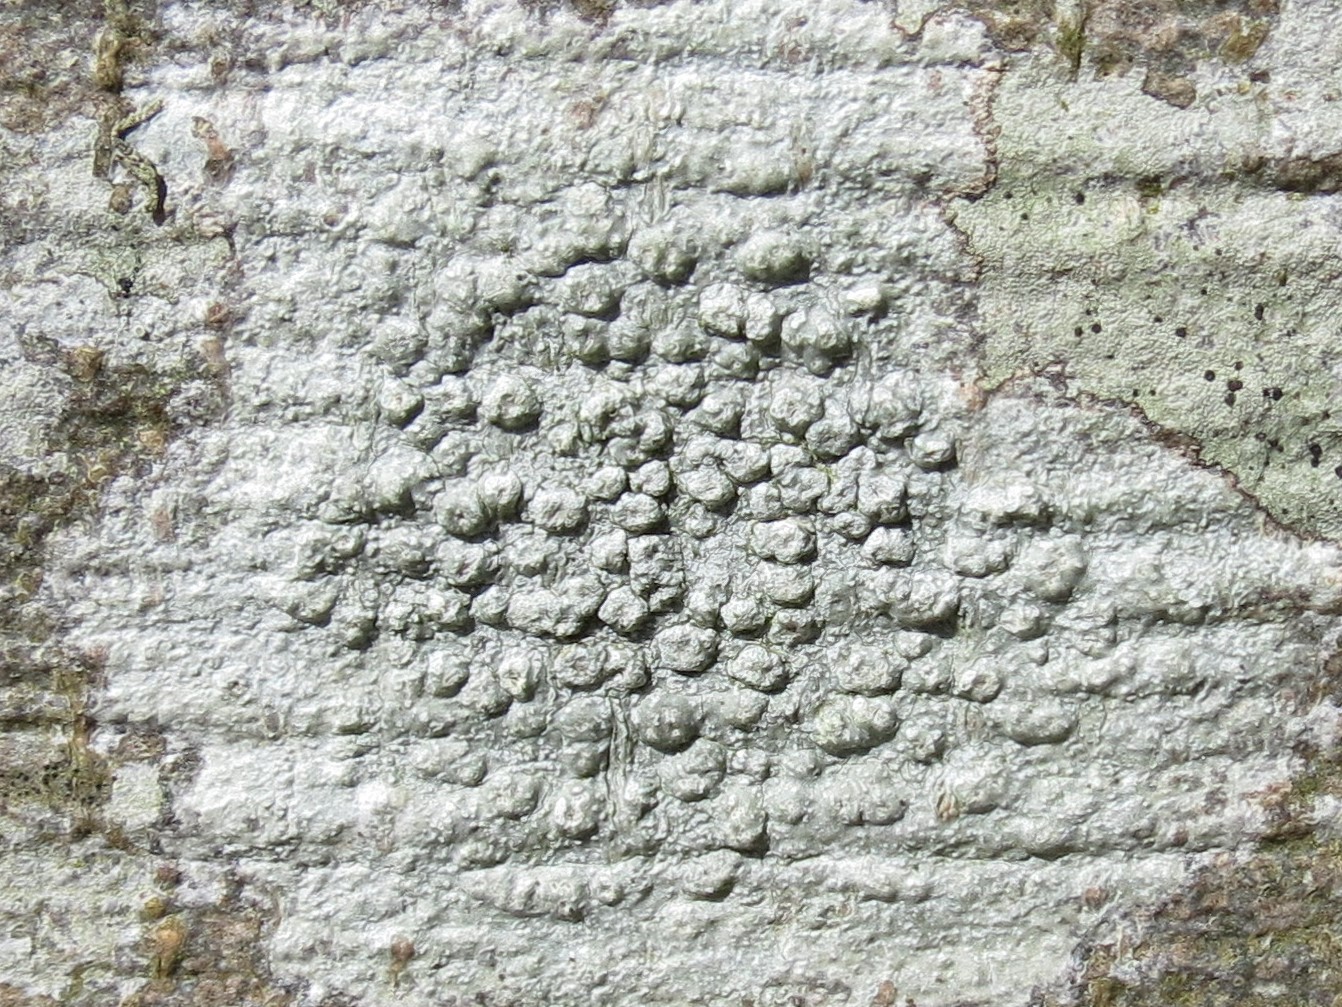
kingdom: Fungi
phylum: Ascomycota
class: Lecanoromycetes
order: Pertusariales
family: Pertusariaceae
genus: Pertusaria
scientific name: Pertusaria hymenea
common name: åben prikvortelav
